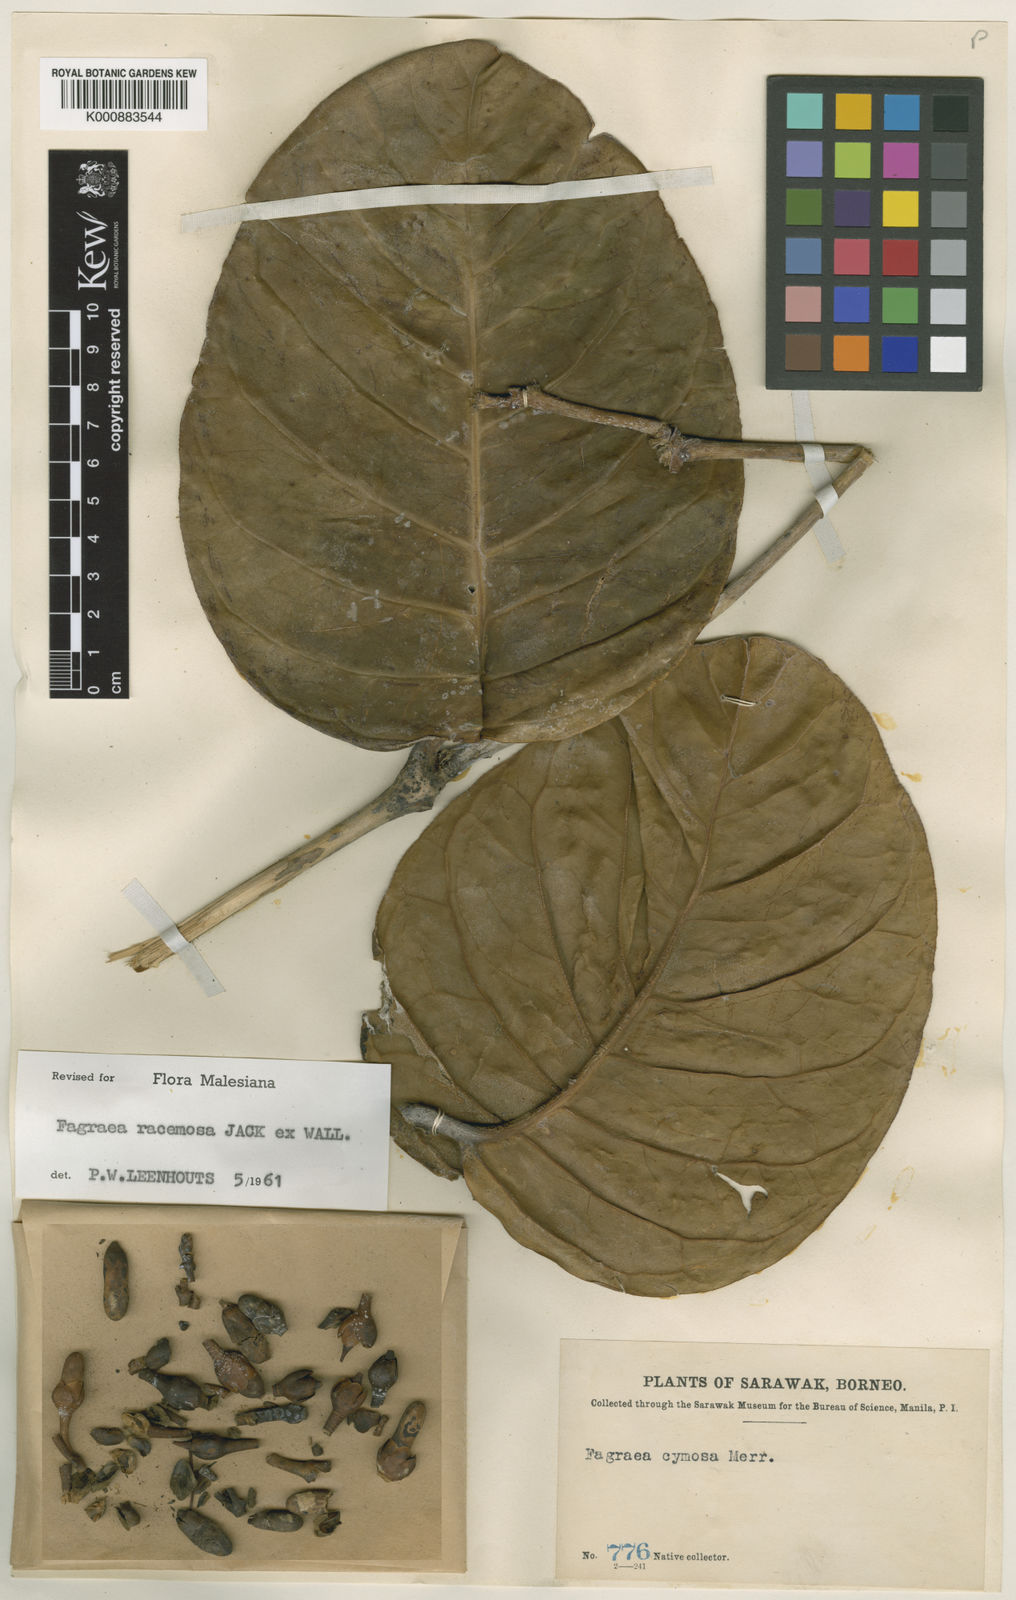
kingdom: Plantae
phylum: Tracheophyta
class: Magnoliopsida
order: Gentianales
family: Gentianaceae
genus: Utania
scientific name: Utania cuspidata
